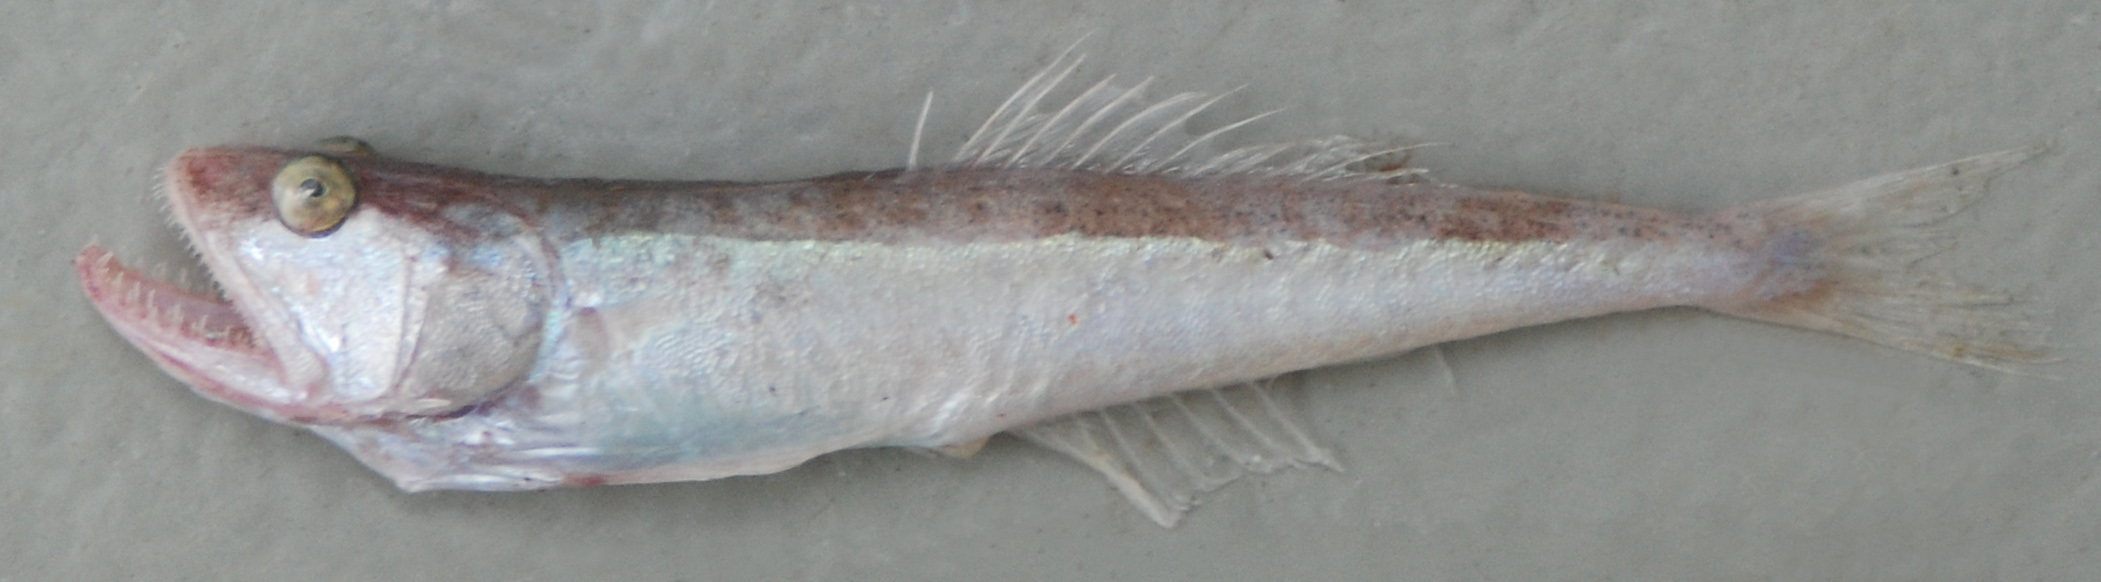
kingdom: Animalia
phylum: Chordata
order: Perciformes
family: Champsodontidae
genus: Champsodon
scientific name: Champsodon nudivittis
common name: Gaper
